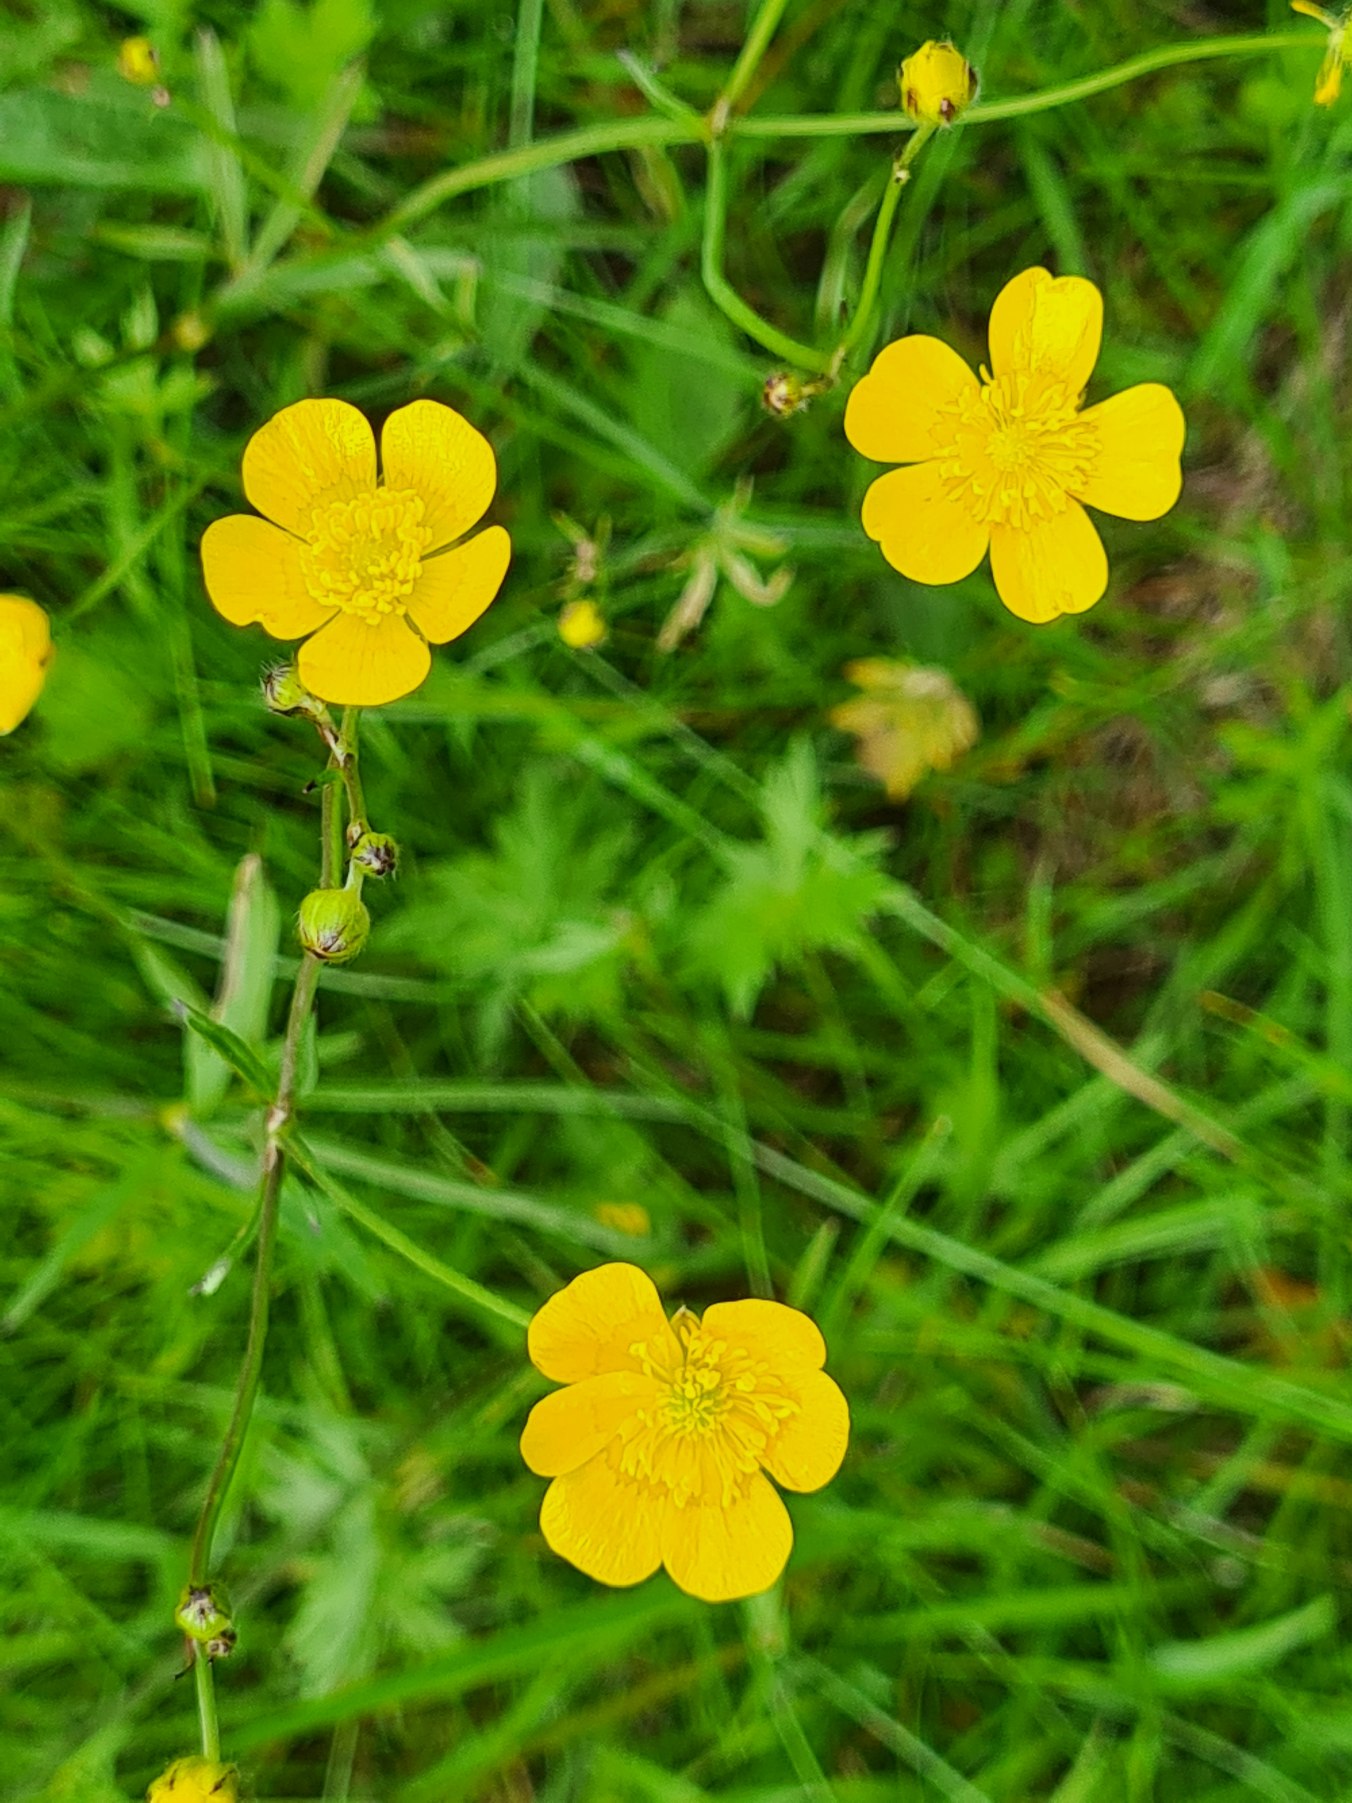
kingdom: Plantae
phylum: Tracheophyta
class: Magnoliopsida
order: Ranunculales
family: Ranunculaceae
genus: Ranunculus
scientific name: Ranunculus acris
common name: Bidende ranunkel
